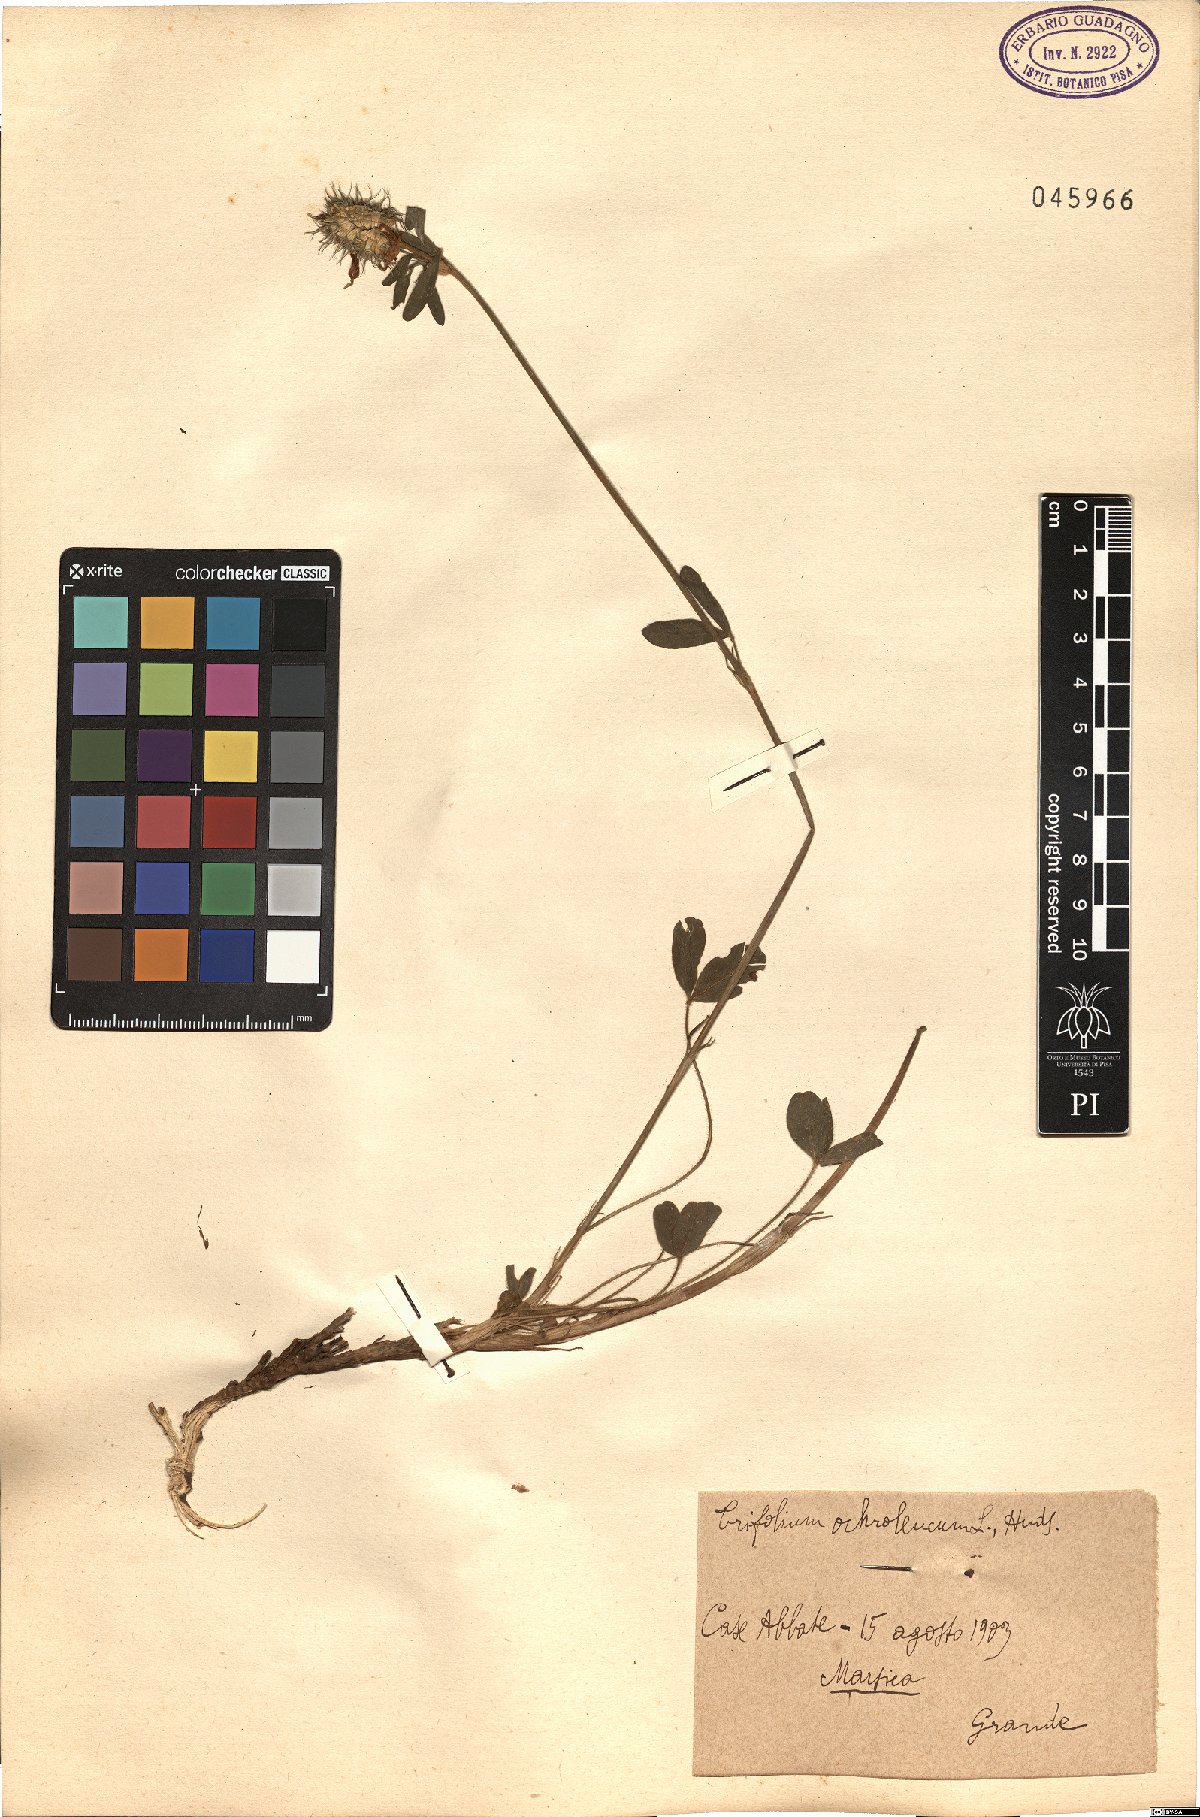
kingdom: Plantae
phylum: Tracheophyta
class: Magnoliopsida
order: Fabales
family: Fabaceae
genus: Trifolium
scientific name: Trifolium ochroleucon
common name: Sulphur clover
